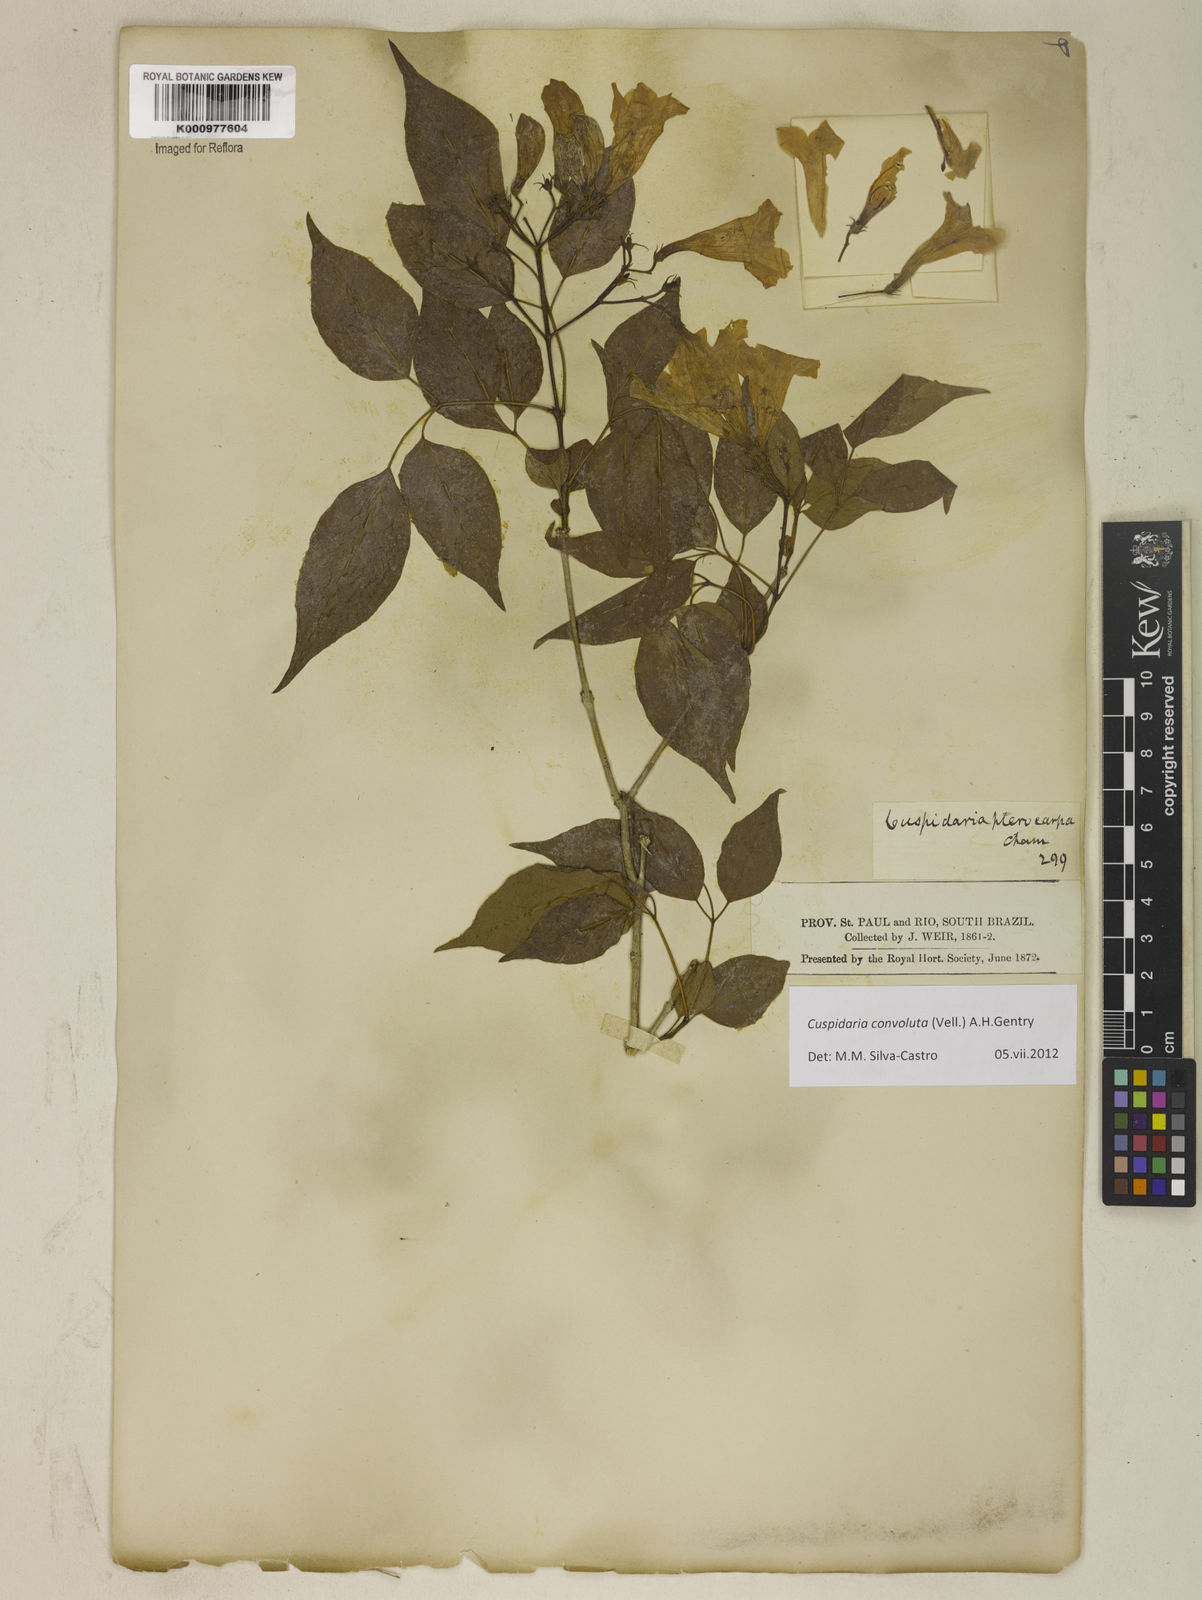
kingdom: Plantae
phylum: Tracheophyta
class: Magnoliopsida
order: Lamiales
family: Bignoniaceae
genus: Cuspidaria
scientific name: Cuspidaria convoluta
